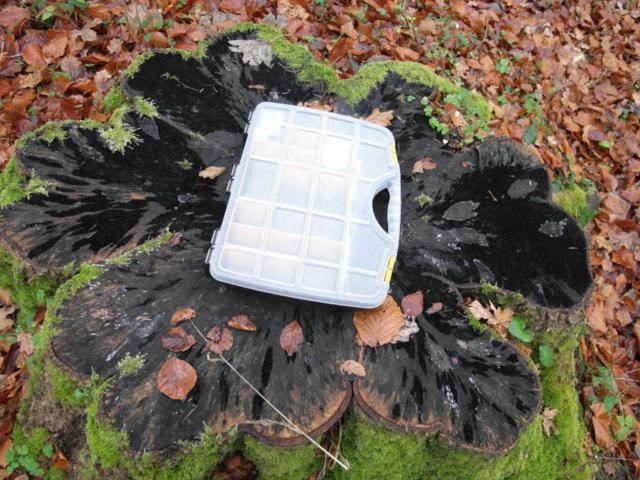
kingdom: Fungi
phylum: Ascomycota
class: Leotiomycetes
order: Helotiales
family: Helotiaceae
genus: Bispora
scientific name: Bispora pallescens
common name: måtte-snitskive
